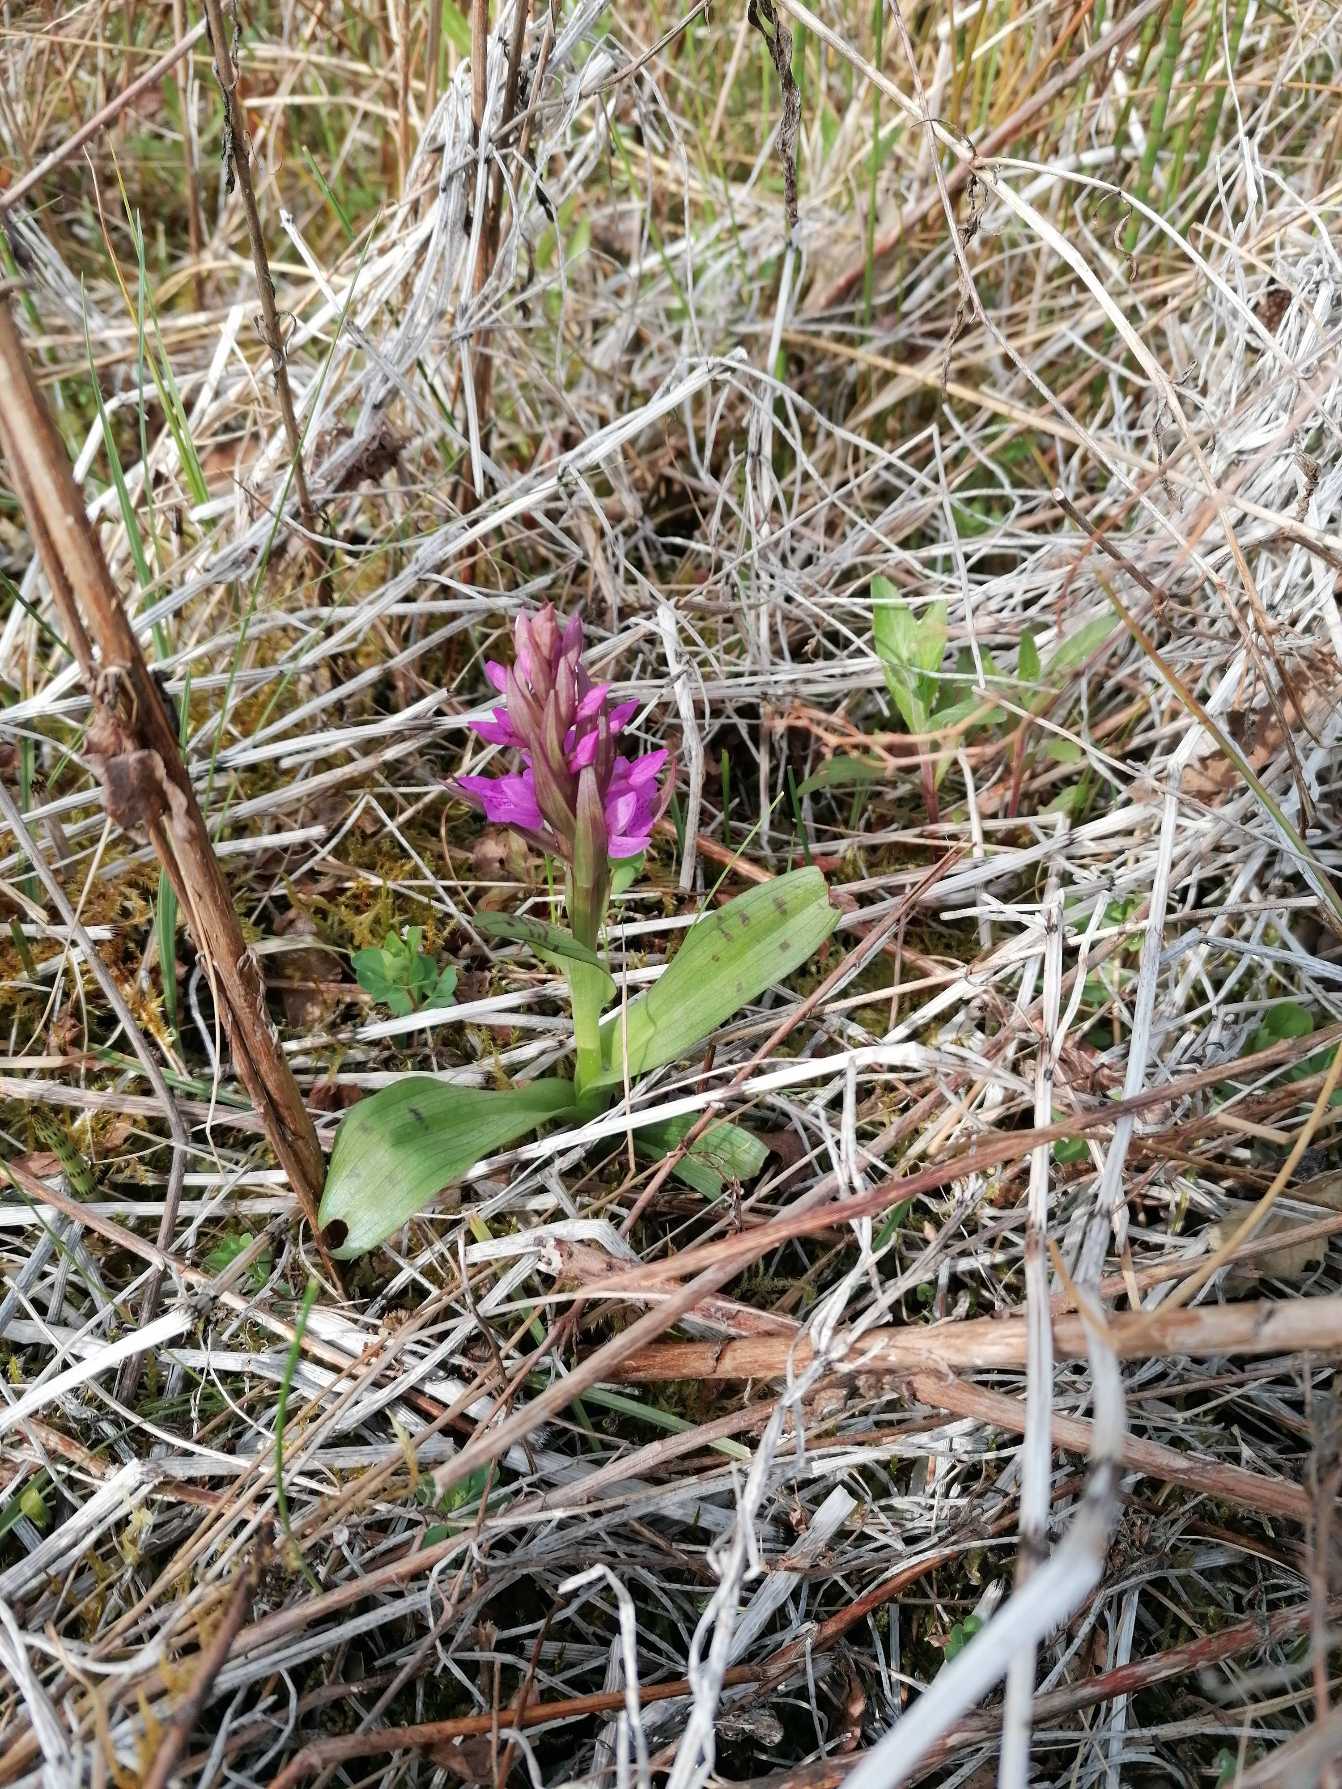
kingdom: Plantae
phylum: Tracheophyta
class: Liliopsida
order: Asparagales
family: Orchidaceae
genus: Dactylorhiza
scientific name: Dactylorhiza majalis
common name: Maj-gøgeurt
